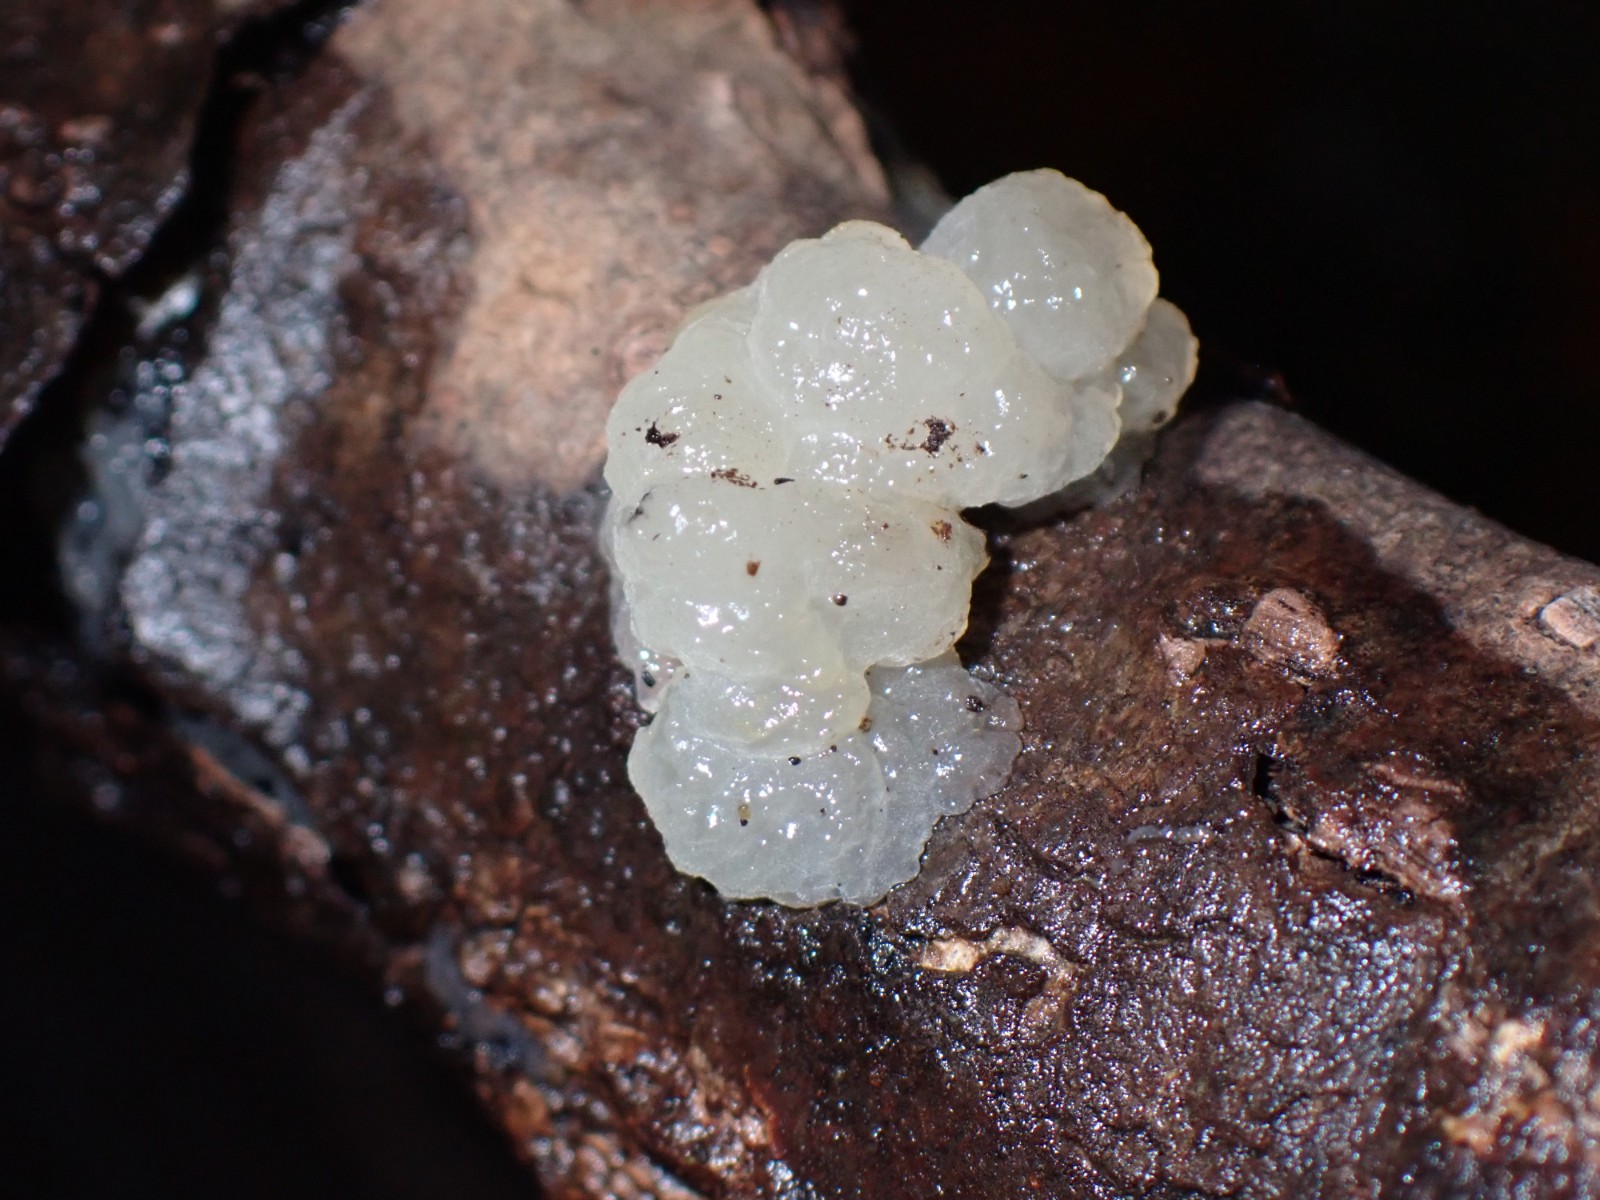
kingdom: Fungi
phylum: Basidiomycota
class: Agaricomycetes
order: Auriculariales
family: Hyaloriaceae
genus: Myxarium
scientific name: Myxarium nucleatum
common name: klar bævretop
